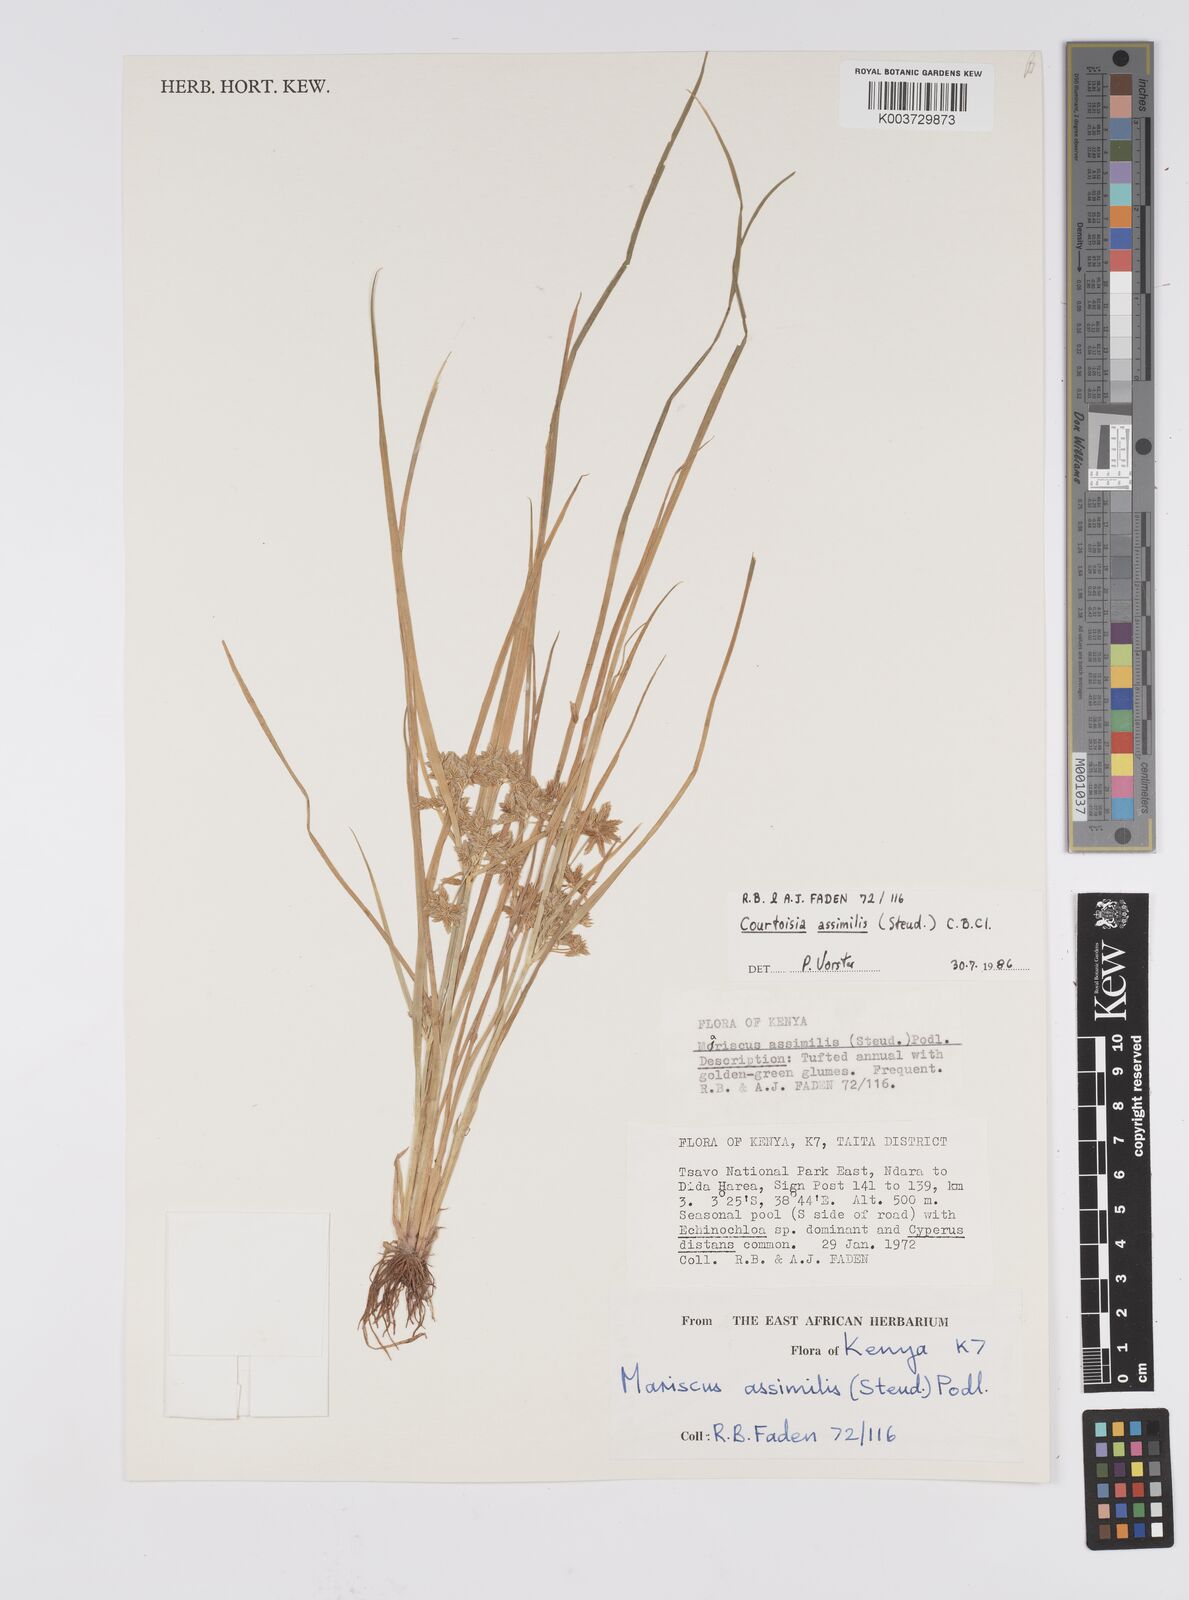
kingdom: Plantae
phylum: Tracheophyta
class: Liliopsida
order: Poales
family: Cyperaceae
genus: Cyperus
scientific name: Cyperus assimilis
